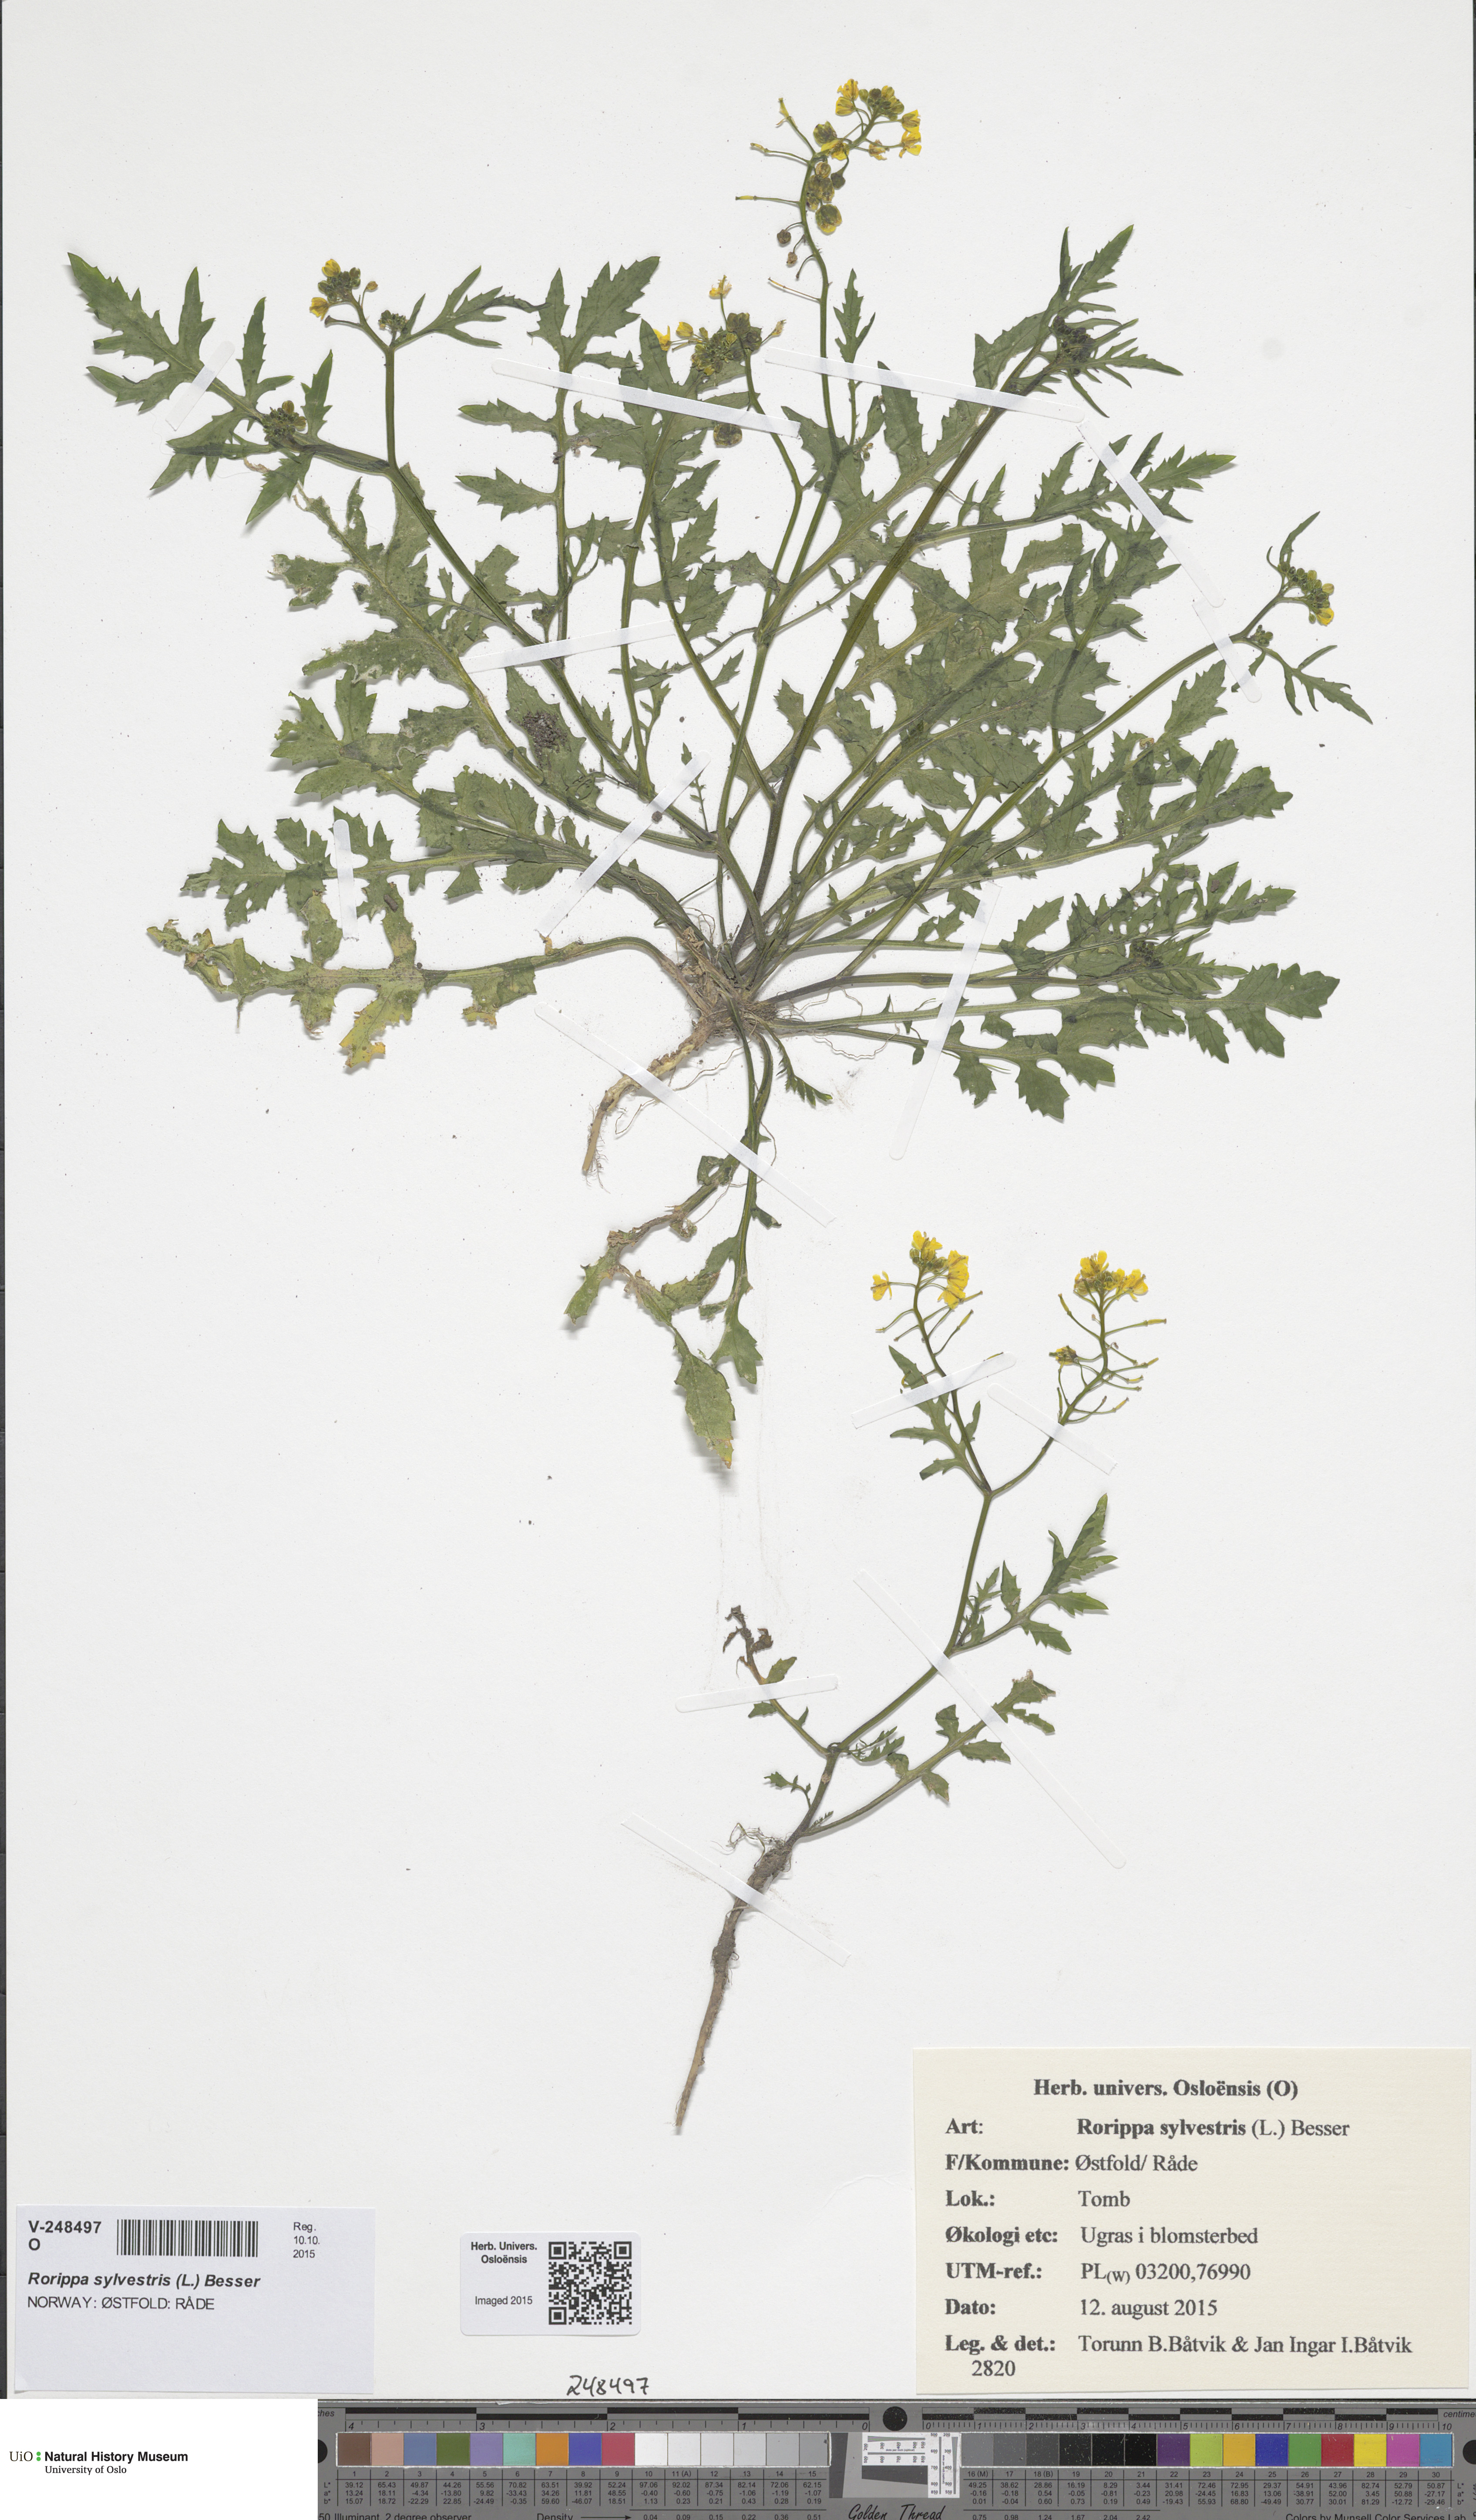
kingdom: Plantae
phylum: Tracheophyta
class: Magnoliopsida
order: Brassicales
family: Brassicaceae
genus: Rorippa
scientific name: Rorippa sylvestris
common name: Creeping yellowcress
